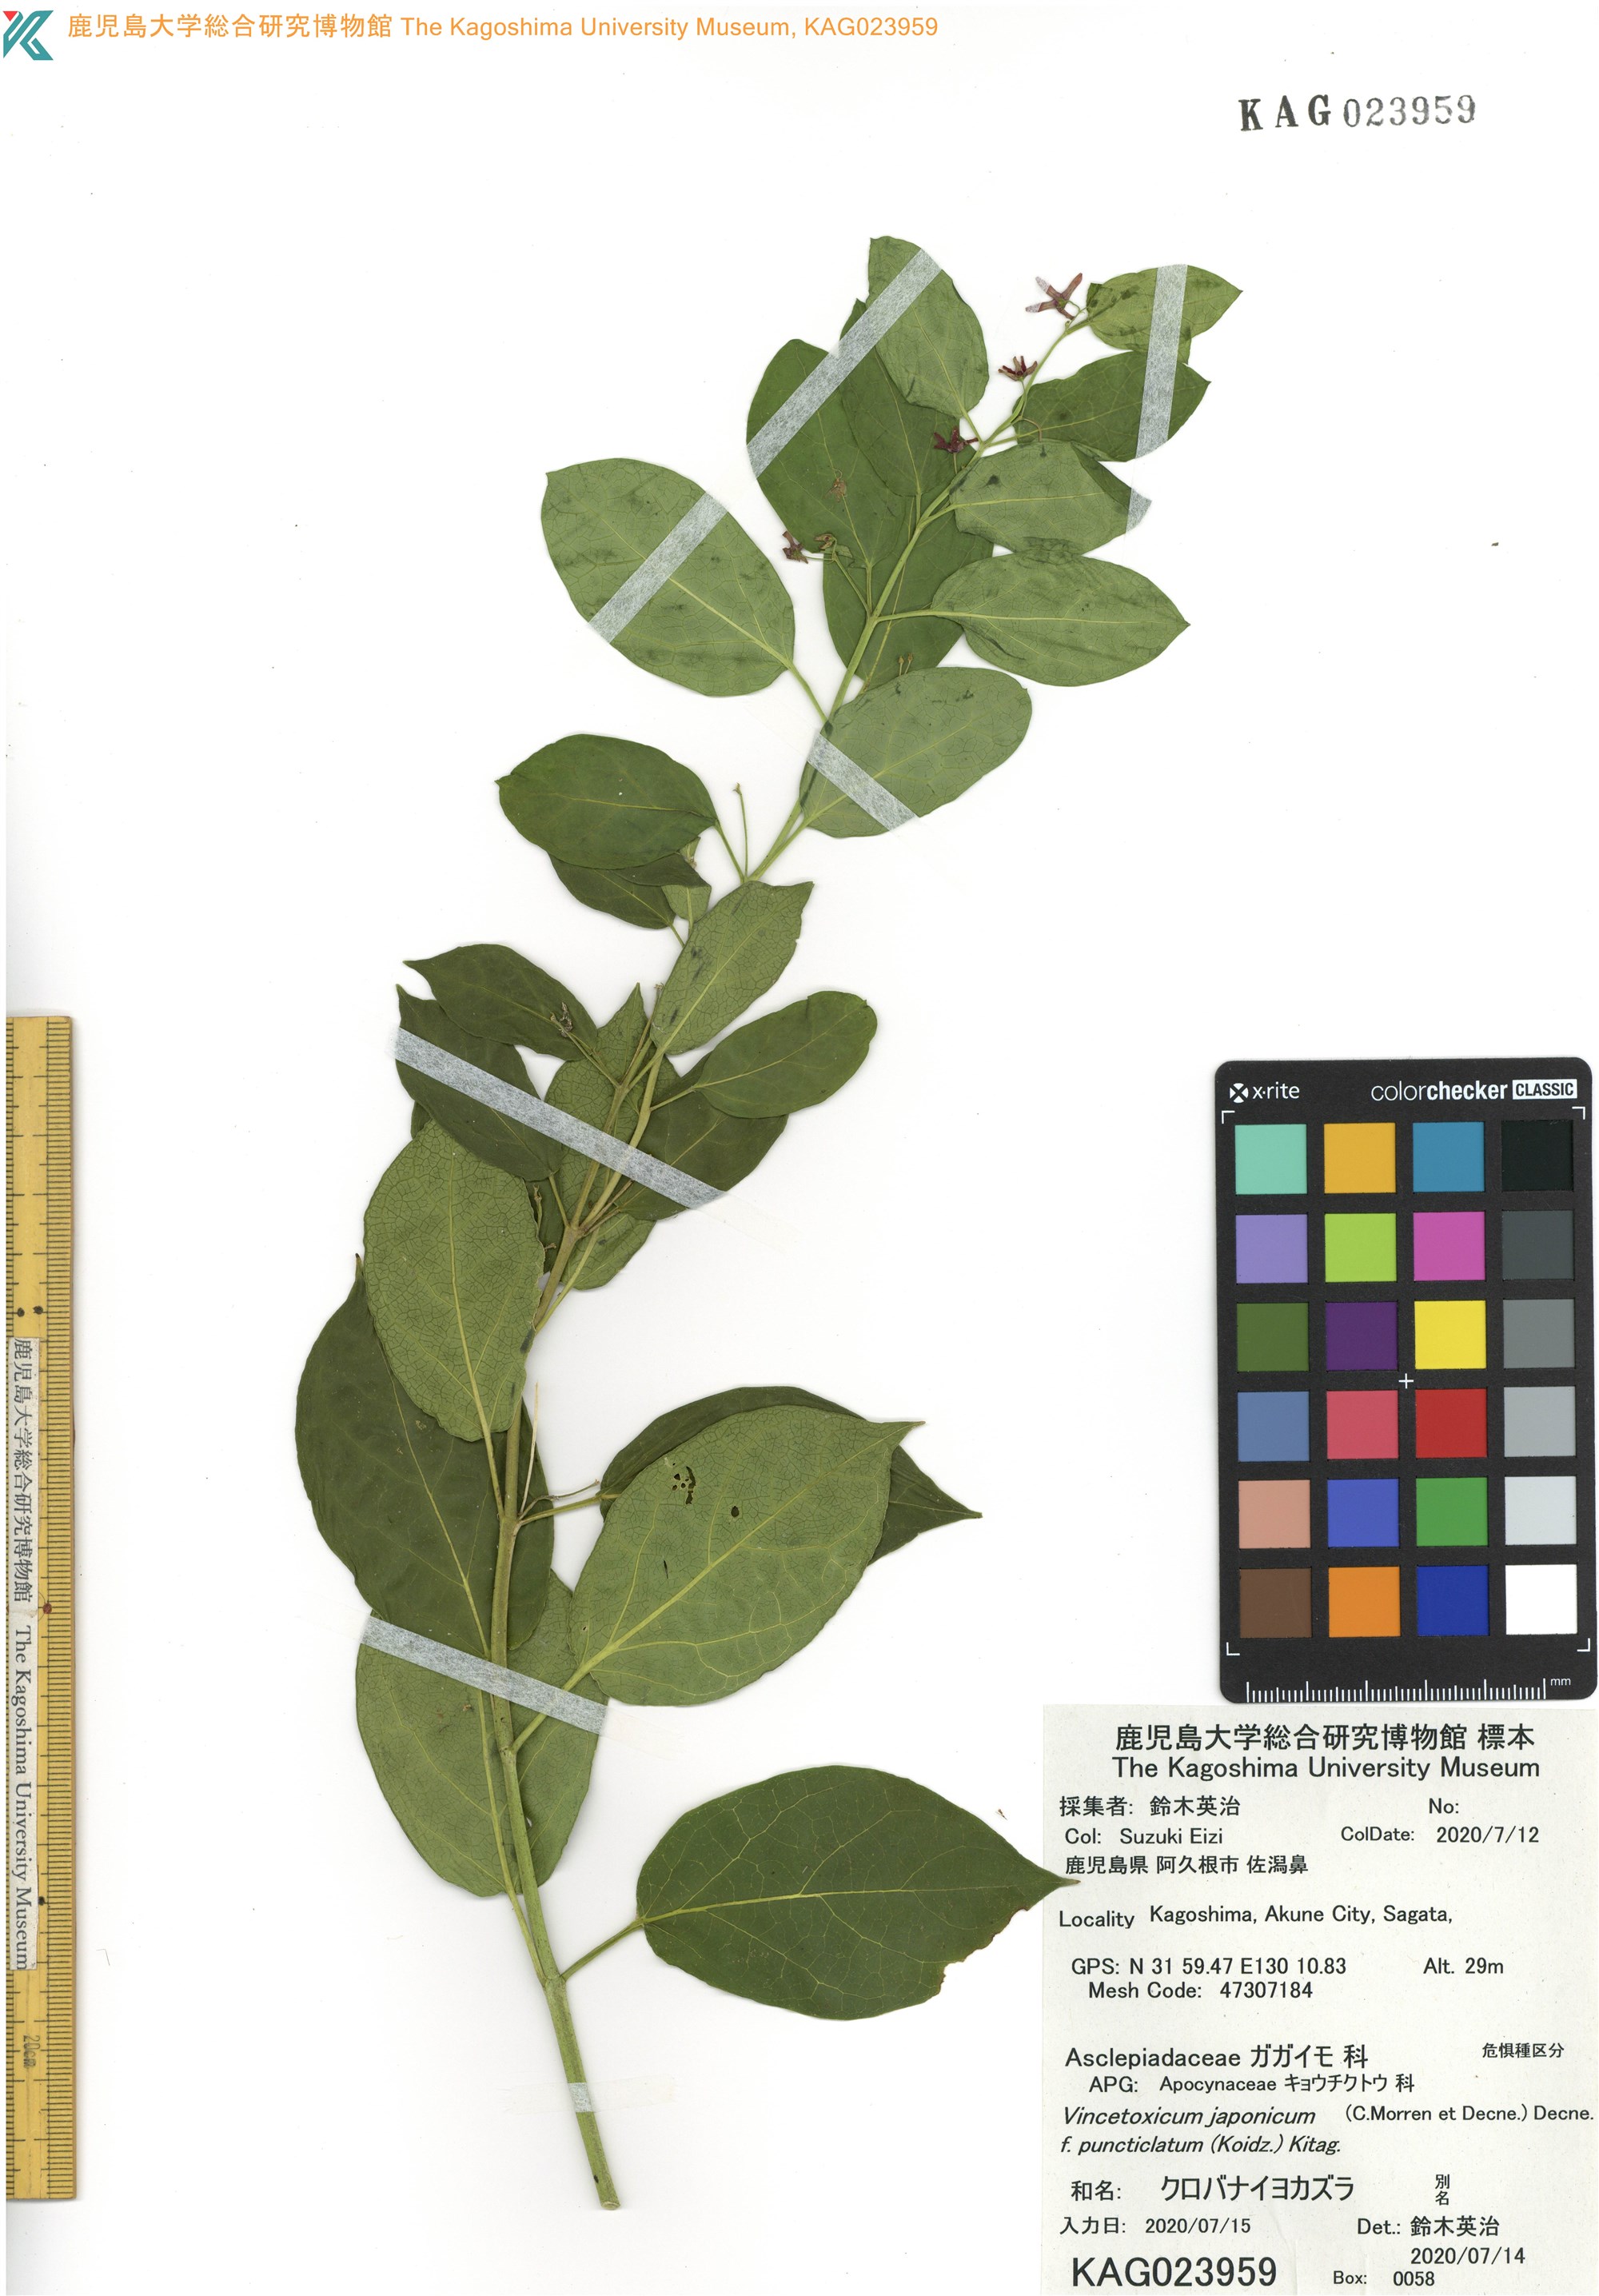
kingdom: Plantae
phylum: Tracheophyta
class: Magnoliopsida
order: Gentianales
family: Apocynaceae
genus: Vincetoxicum
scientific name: Vincetoxicum japonicum
